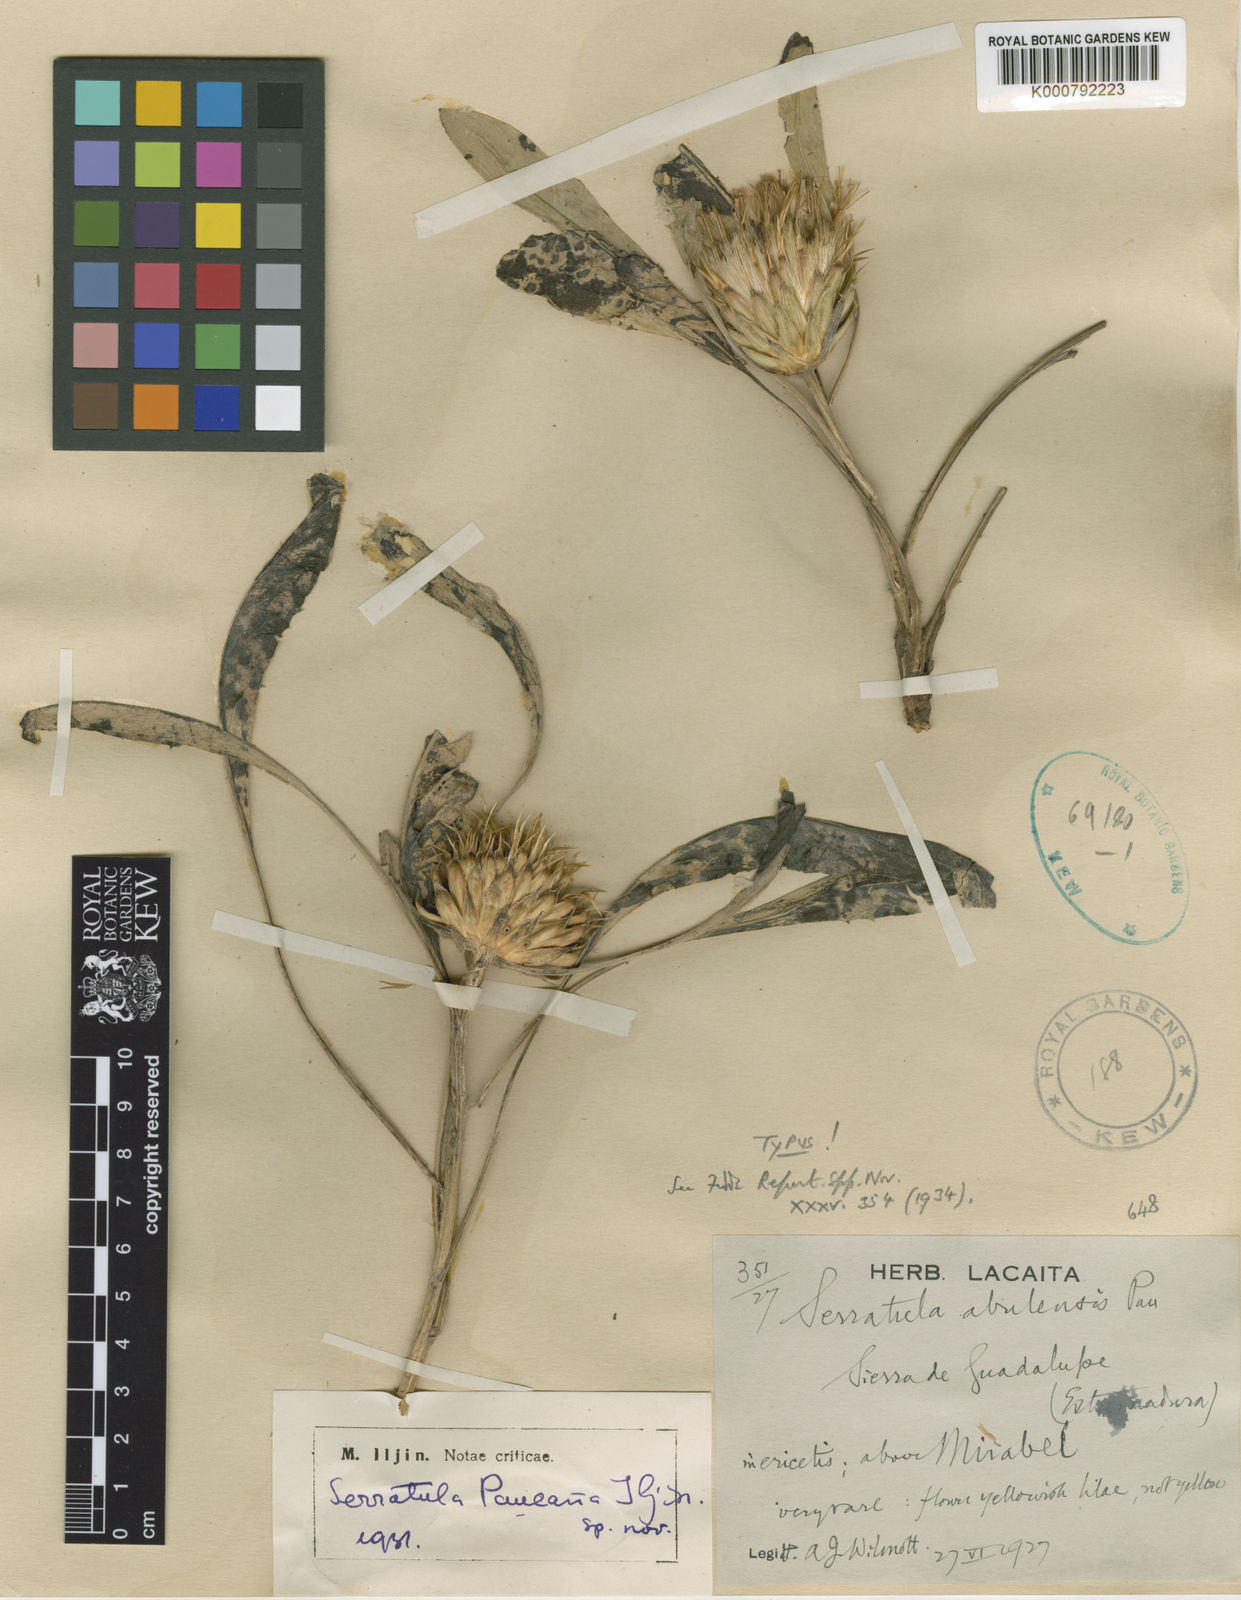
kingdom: Plantae
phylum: Tracheophyta
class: Magnoliopsida
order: Asterales
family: Asteraceae
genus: Serratula
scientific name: Serratula
